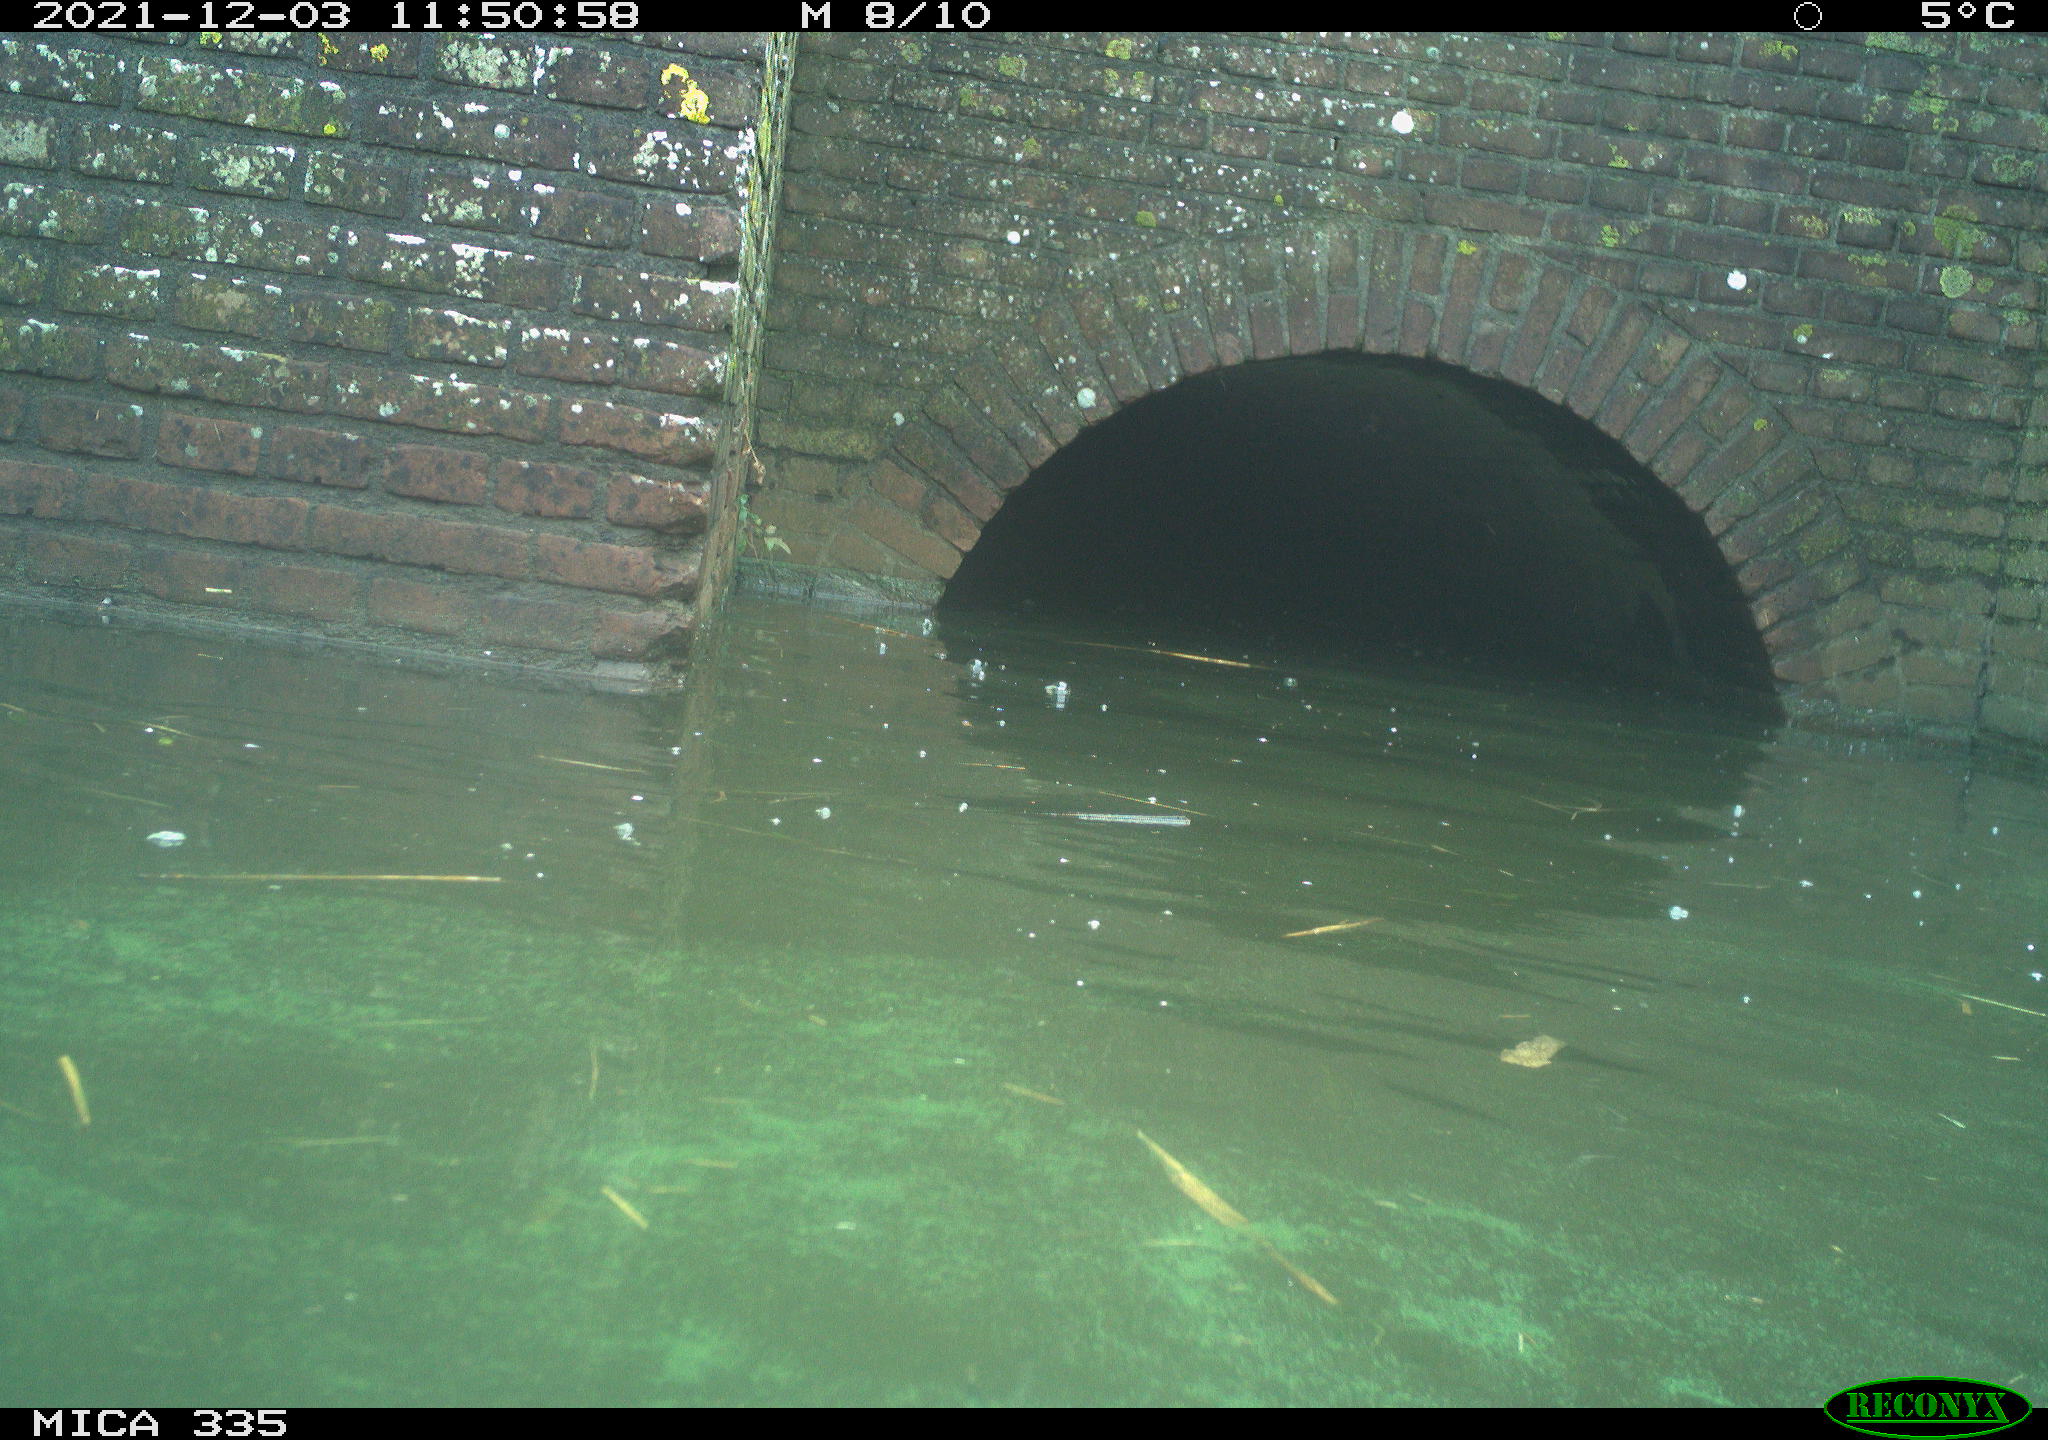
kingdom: Animalia
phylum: Chordata
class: Aves
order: Anseriformes
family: Anatidae
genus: Anas
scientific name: Anas platyrhynchos
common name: Mallard
